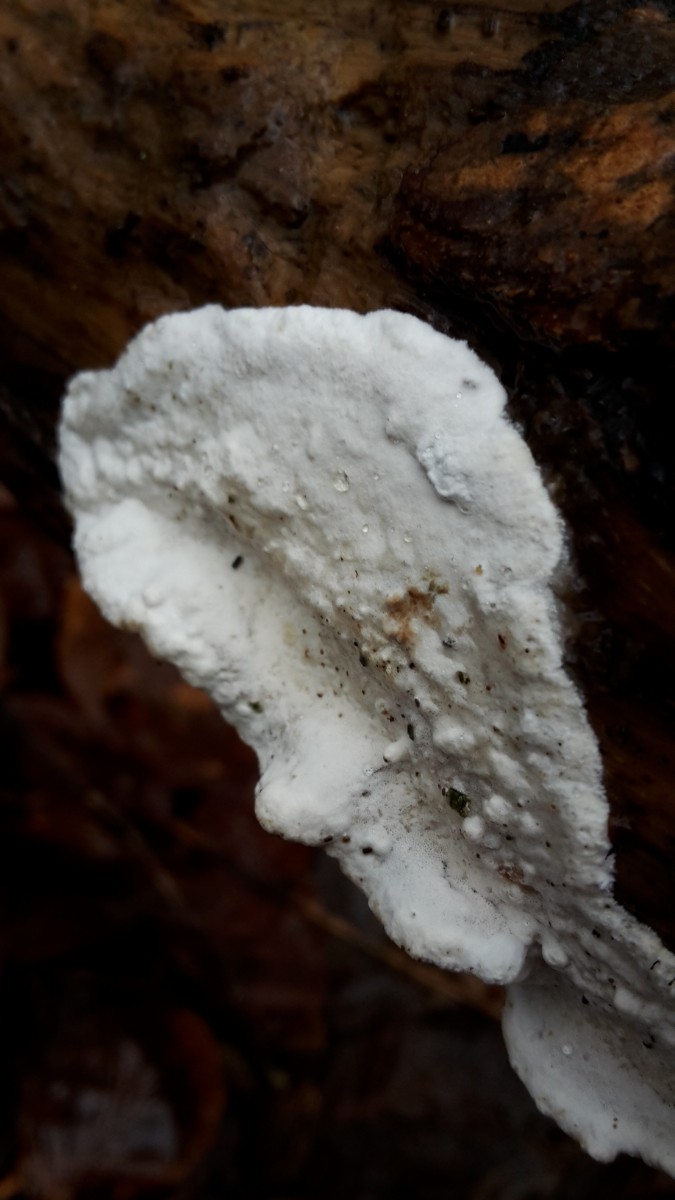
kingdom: Fungi
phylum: Basidiomycota
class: Agaricomycetes
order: Polyporales
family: Incrustoporiaceae
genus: Skeletocutis
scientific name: Skeletocutis nemoralis
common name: stor krystalporesvamp
